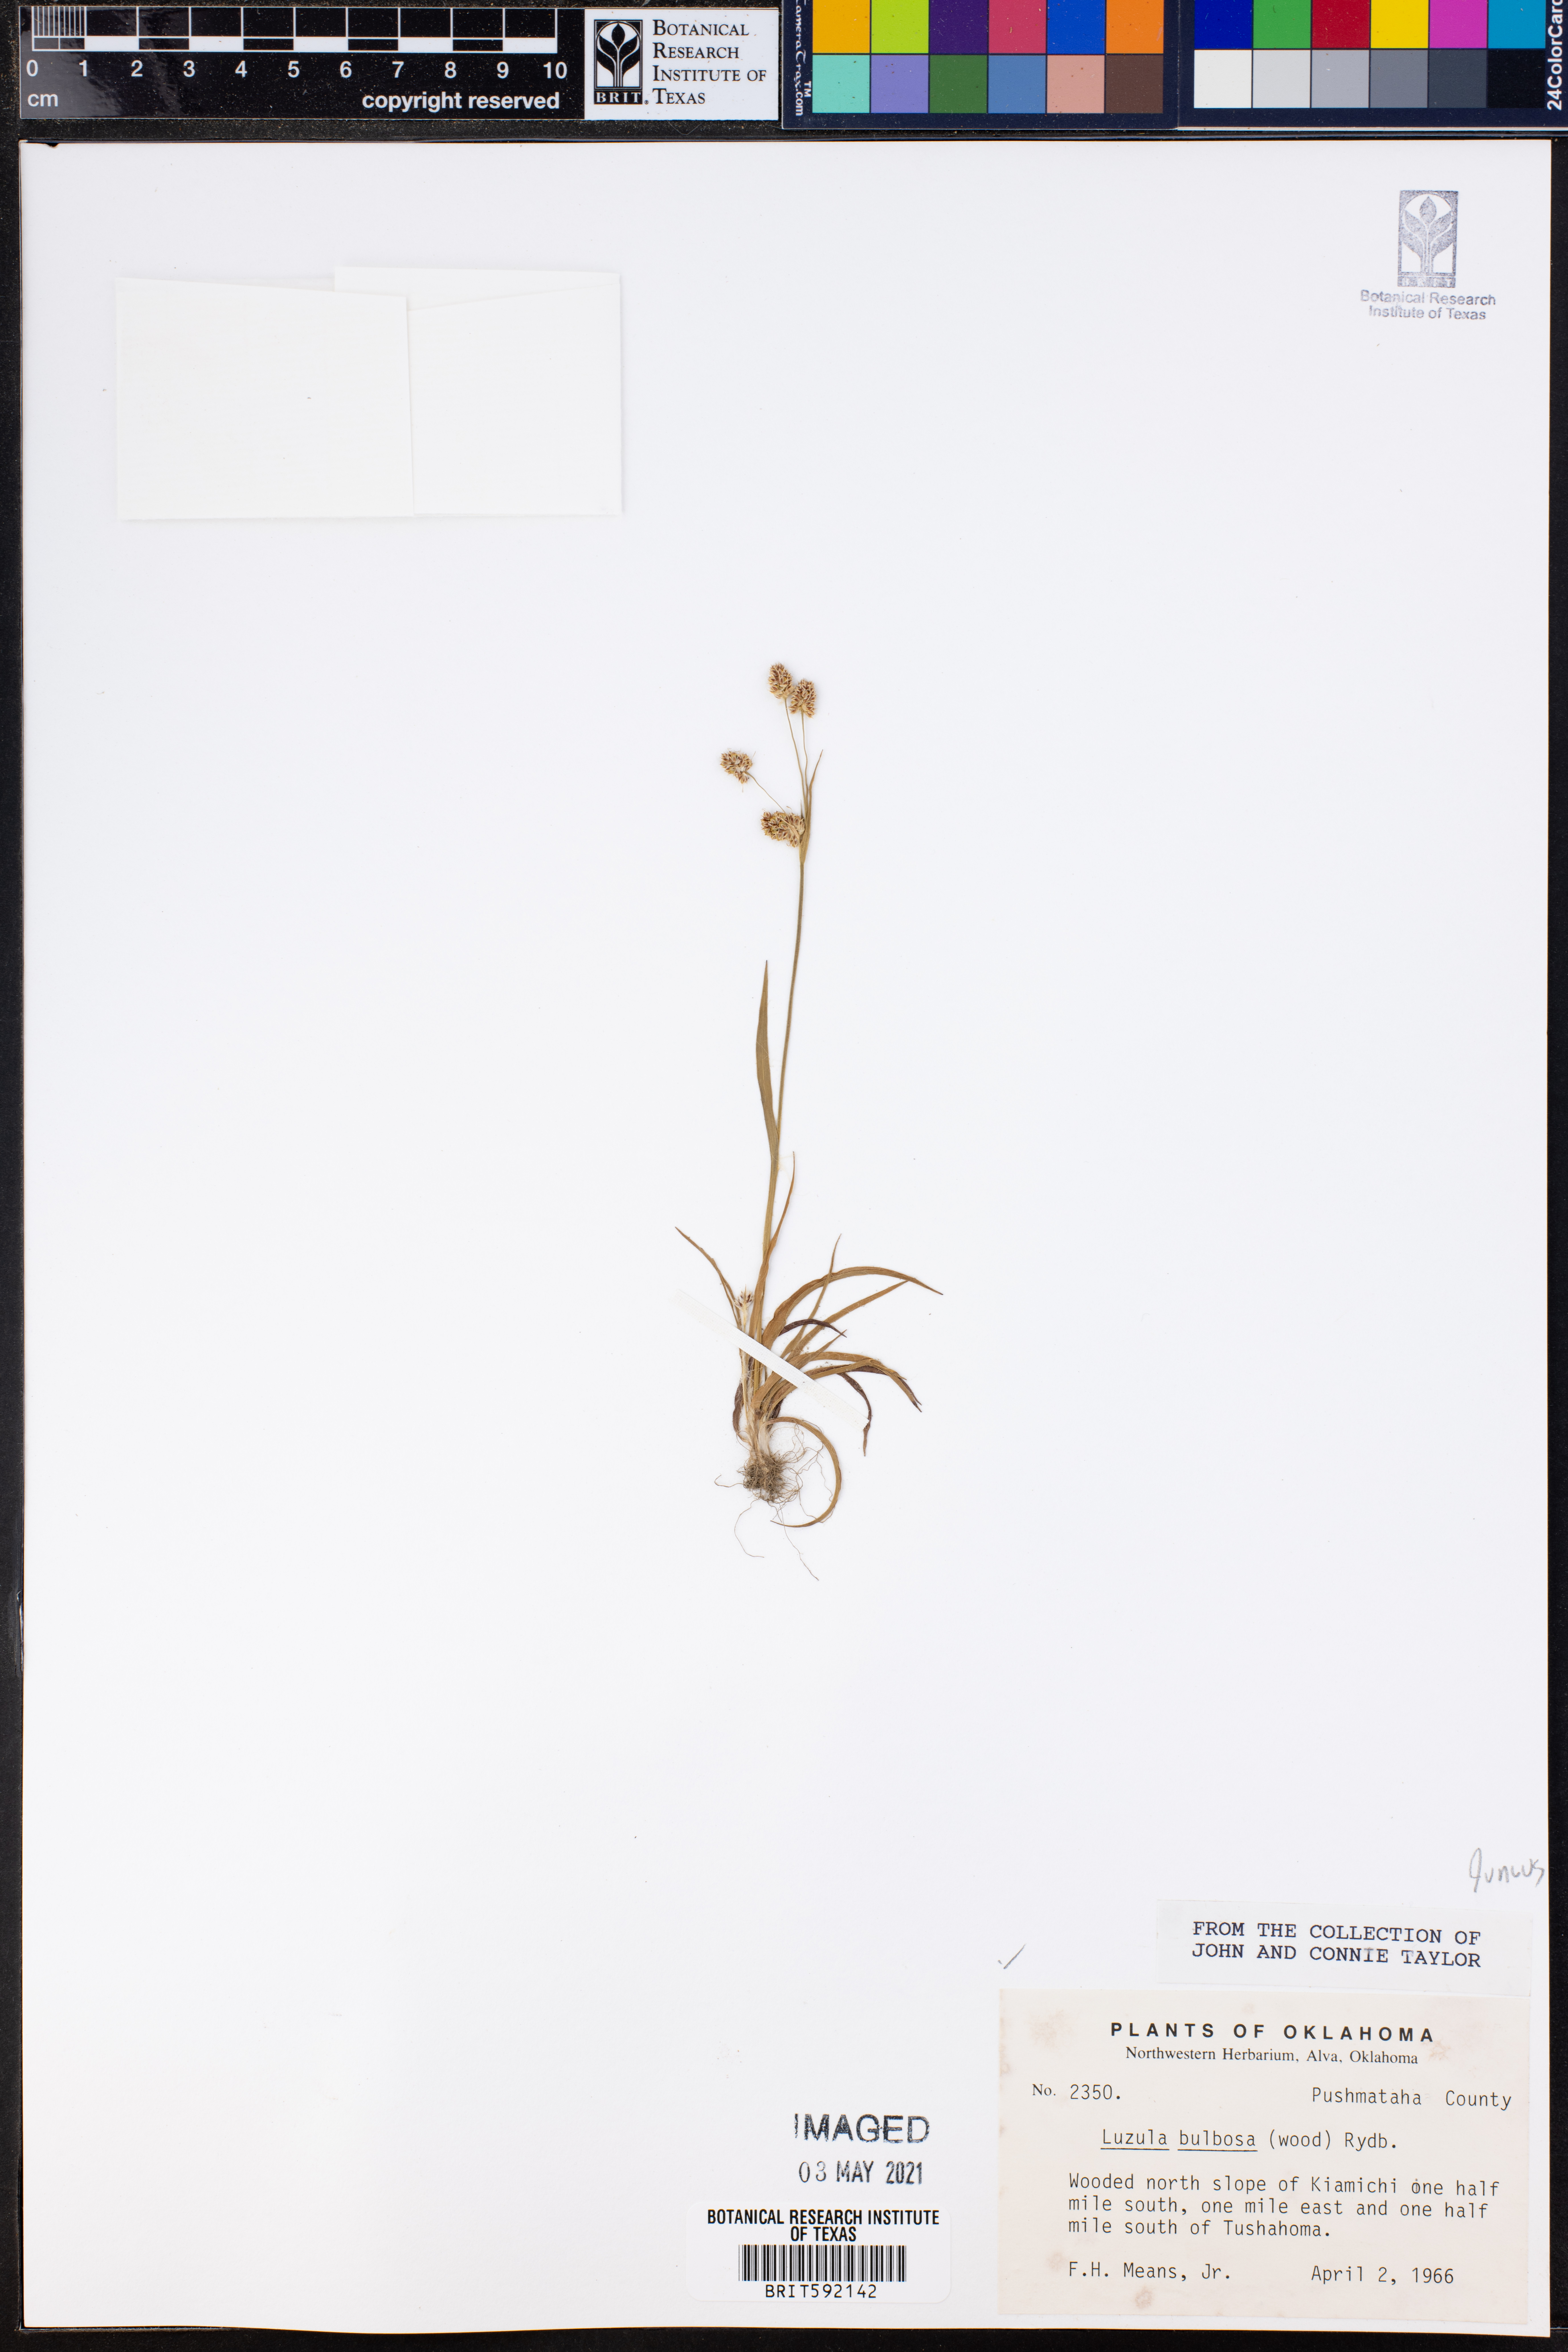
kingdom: Plantae
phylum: Tracheophyta
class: Liliopsida
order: Poales
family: Juncaceae
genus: Luzula
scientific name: Luzula bulbosa
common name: Bulbous woodrush
